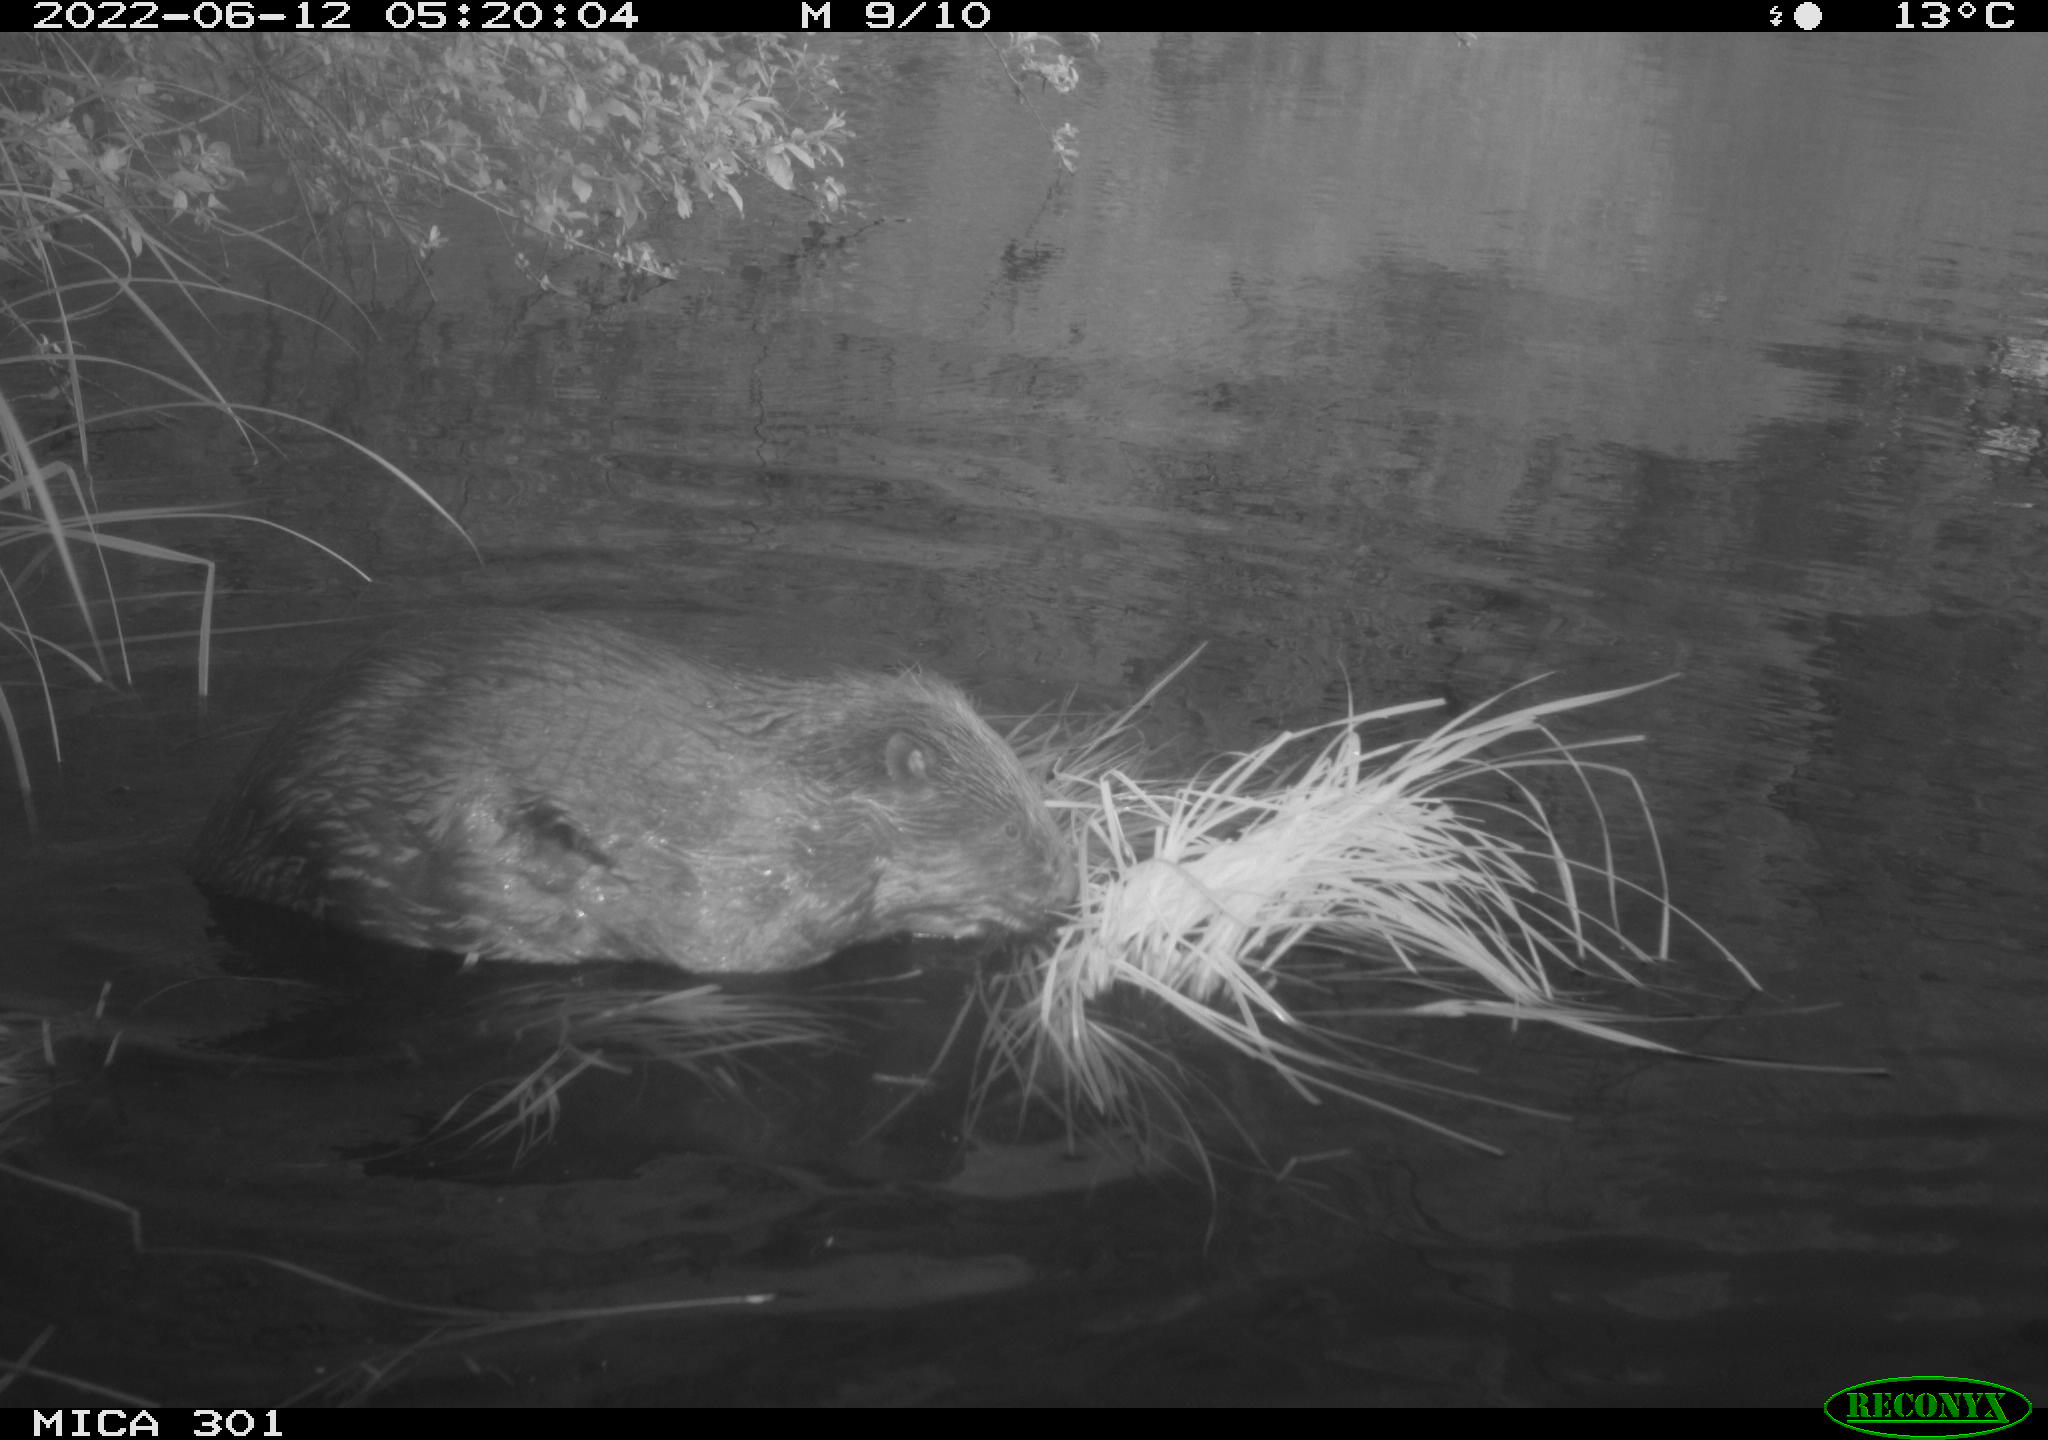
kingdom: Animalia
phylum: Chordata
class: Mammalia
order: Rodentia
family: Castoridae
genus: Castor
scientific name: Castor fiber
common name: Eurasian beaver
